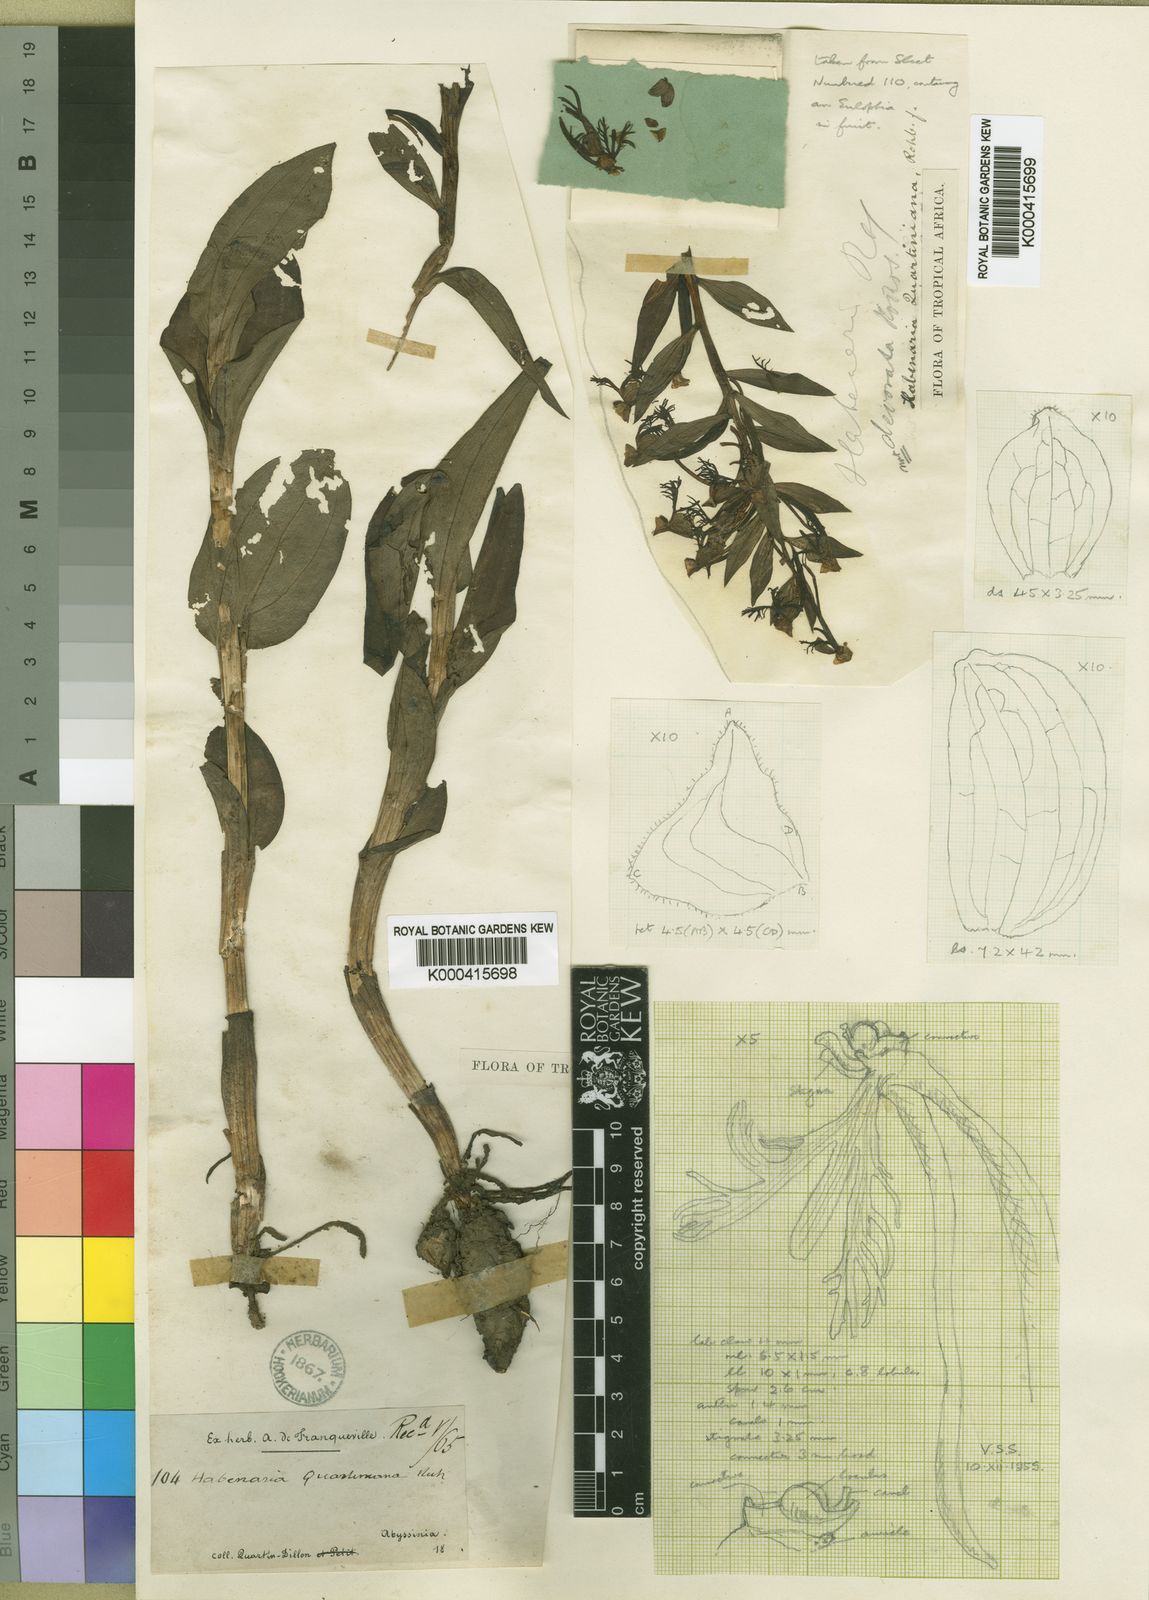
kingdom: Plantae
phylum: Tracheophyta
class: Liliopsida
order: Asparagales
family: Orchidaceae
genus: Habenaria
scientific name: Habenaria quartiniana
